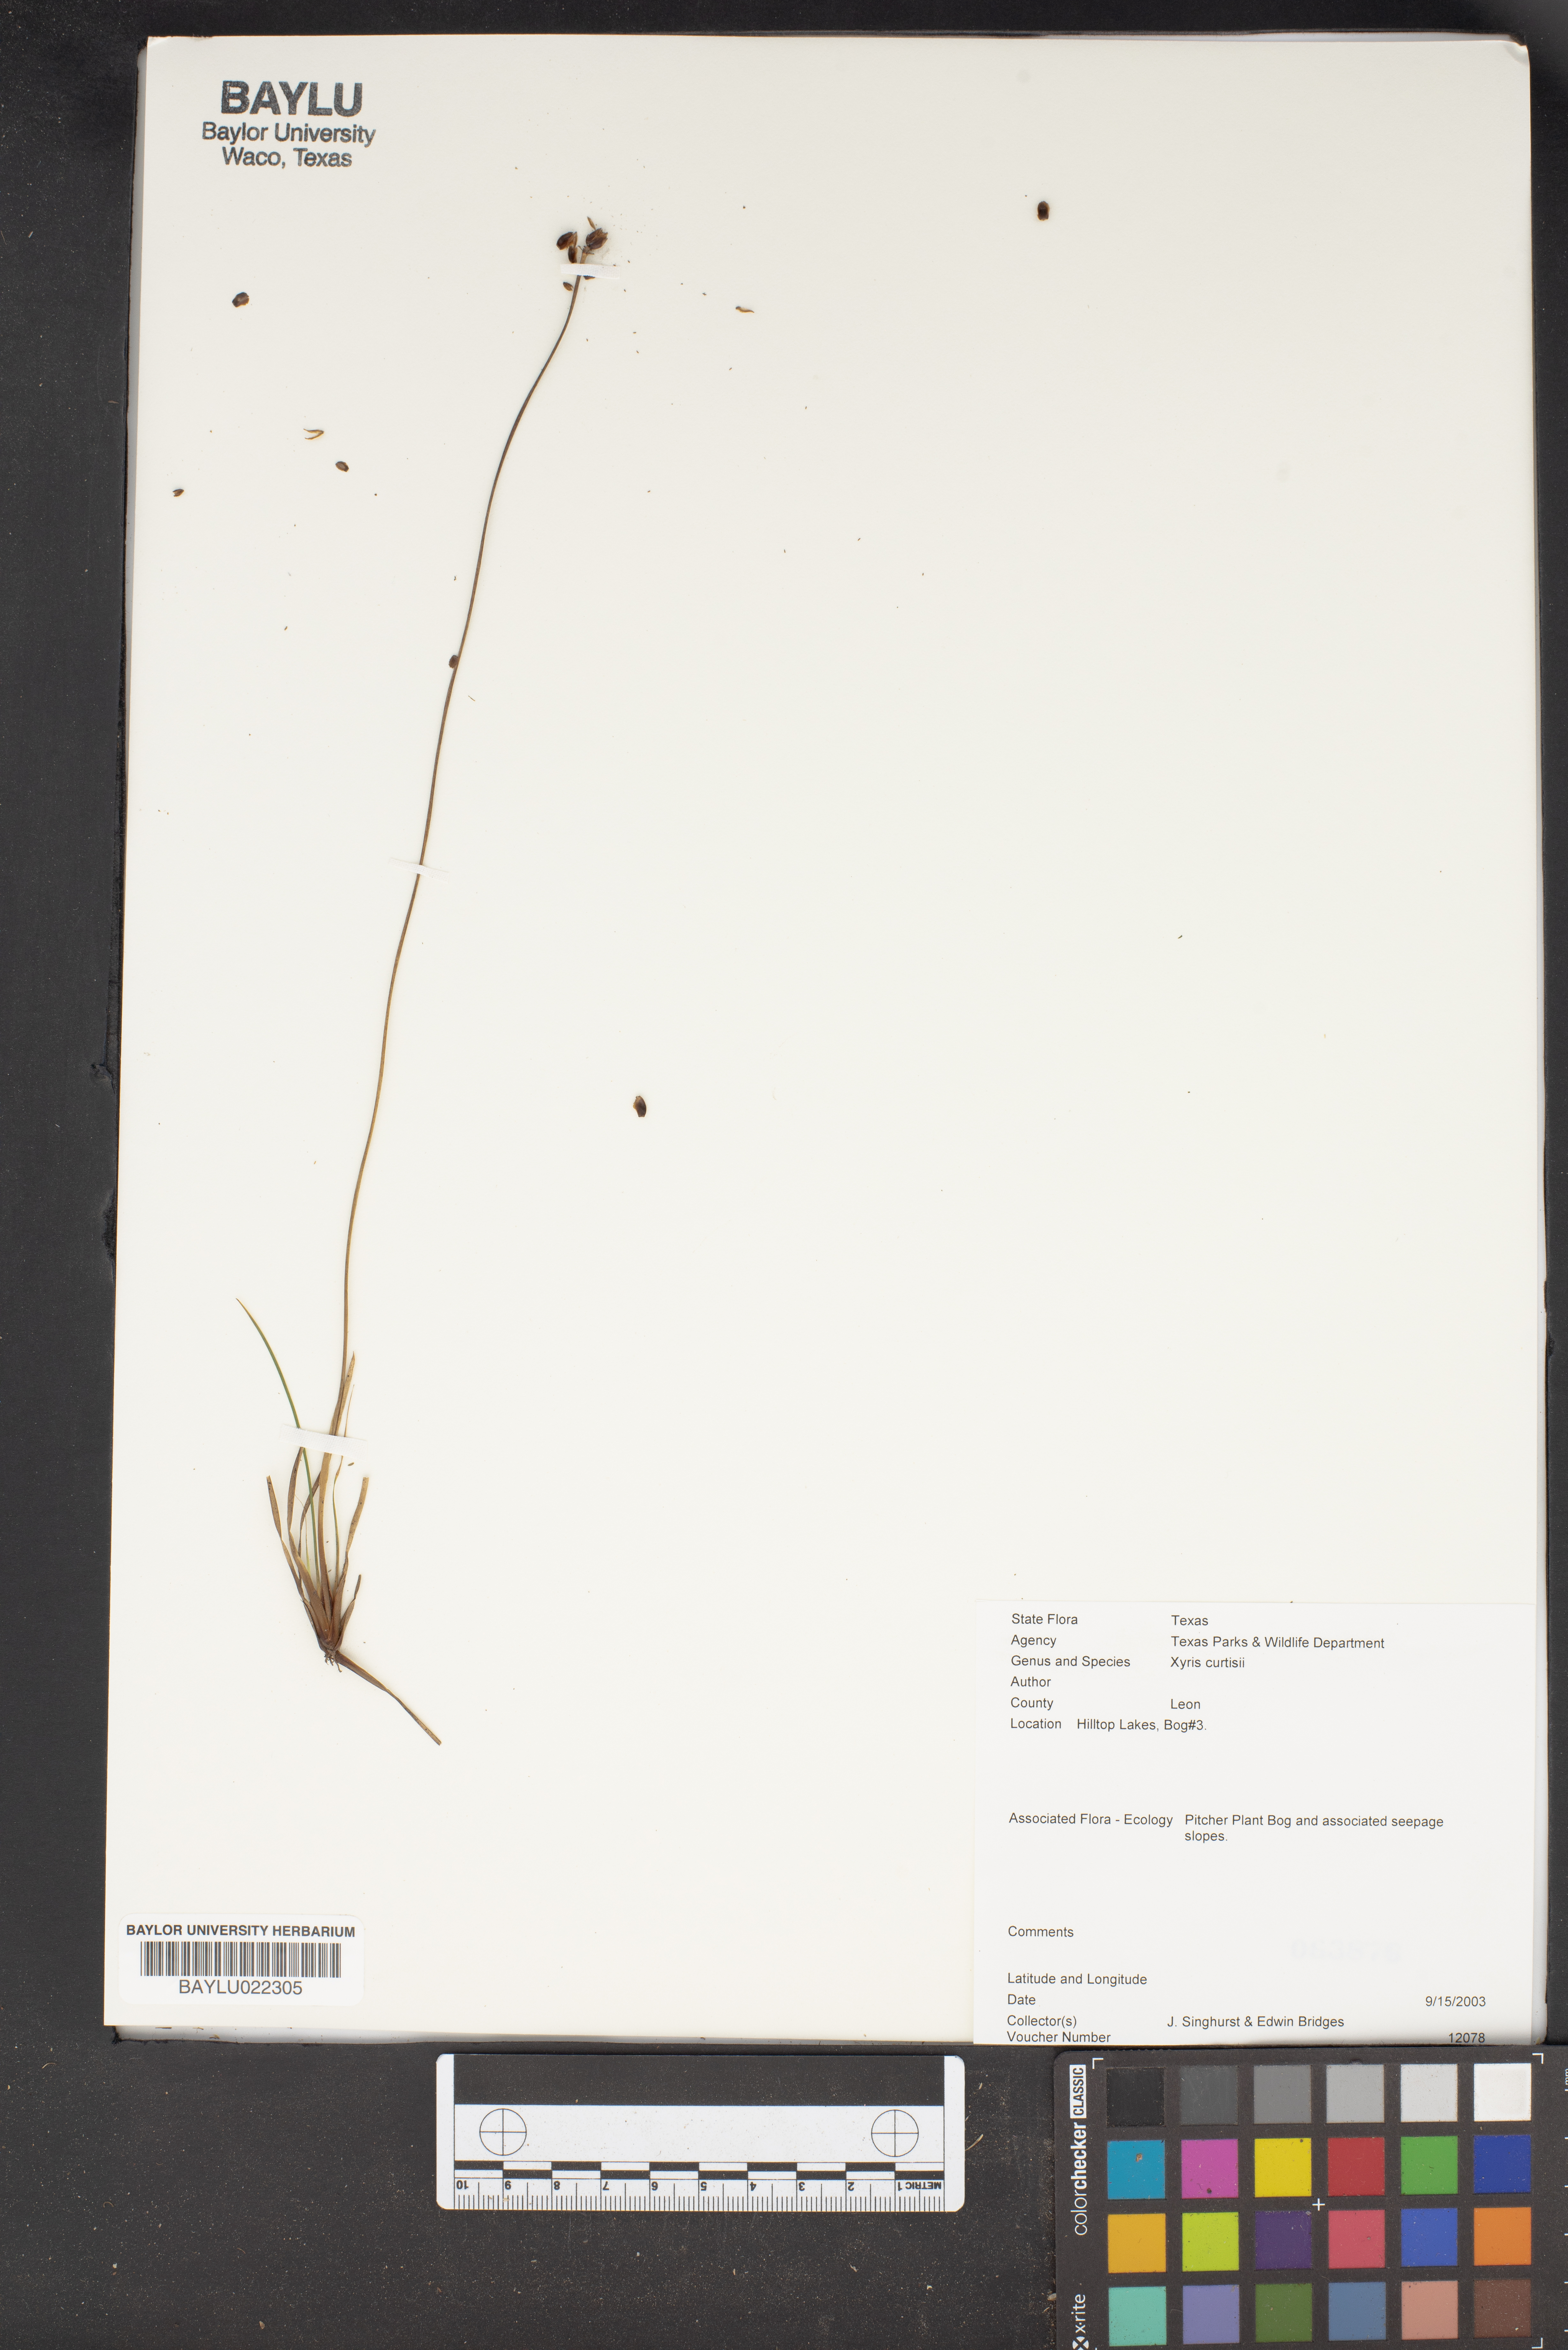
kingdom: Plantae
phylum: Tracheophyta
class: Liliopsida
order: Poales
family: Xyridaceae
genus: Xyris
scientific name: Xyris difformis
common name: Bog yellow-eyed-grass
